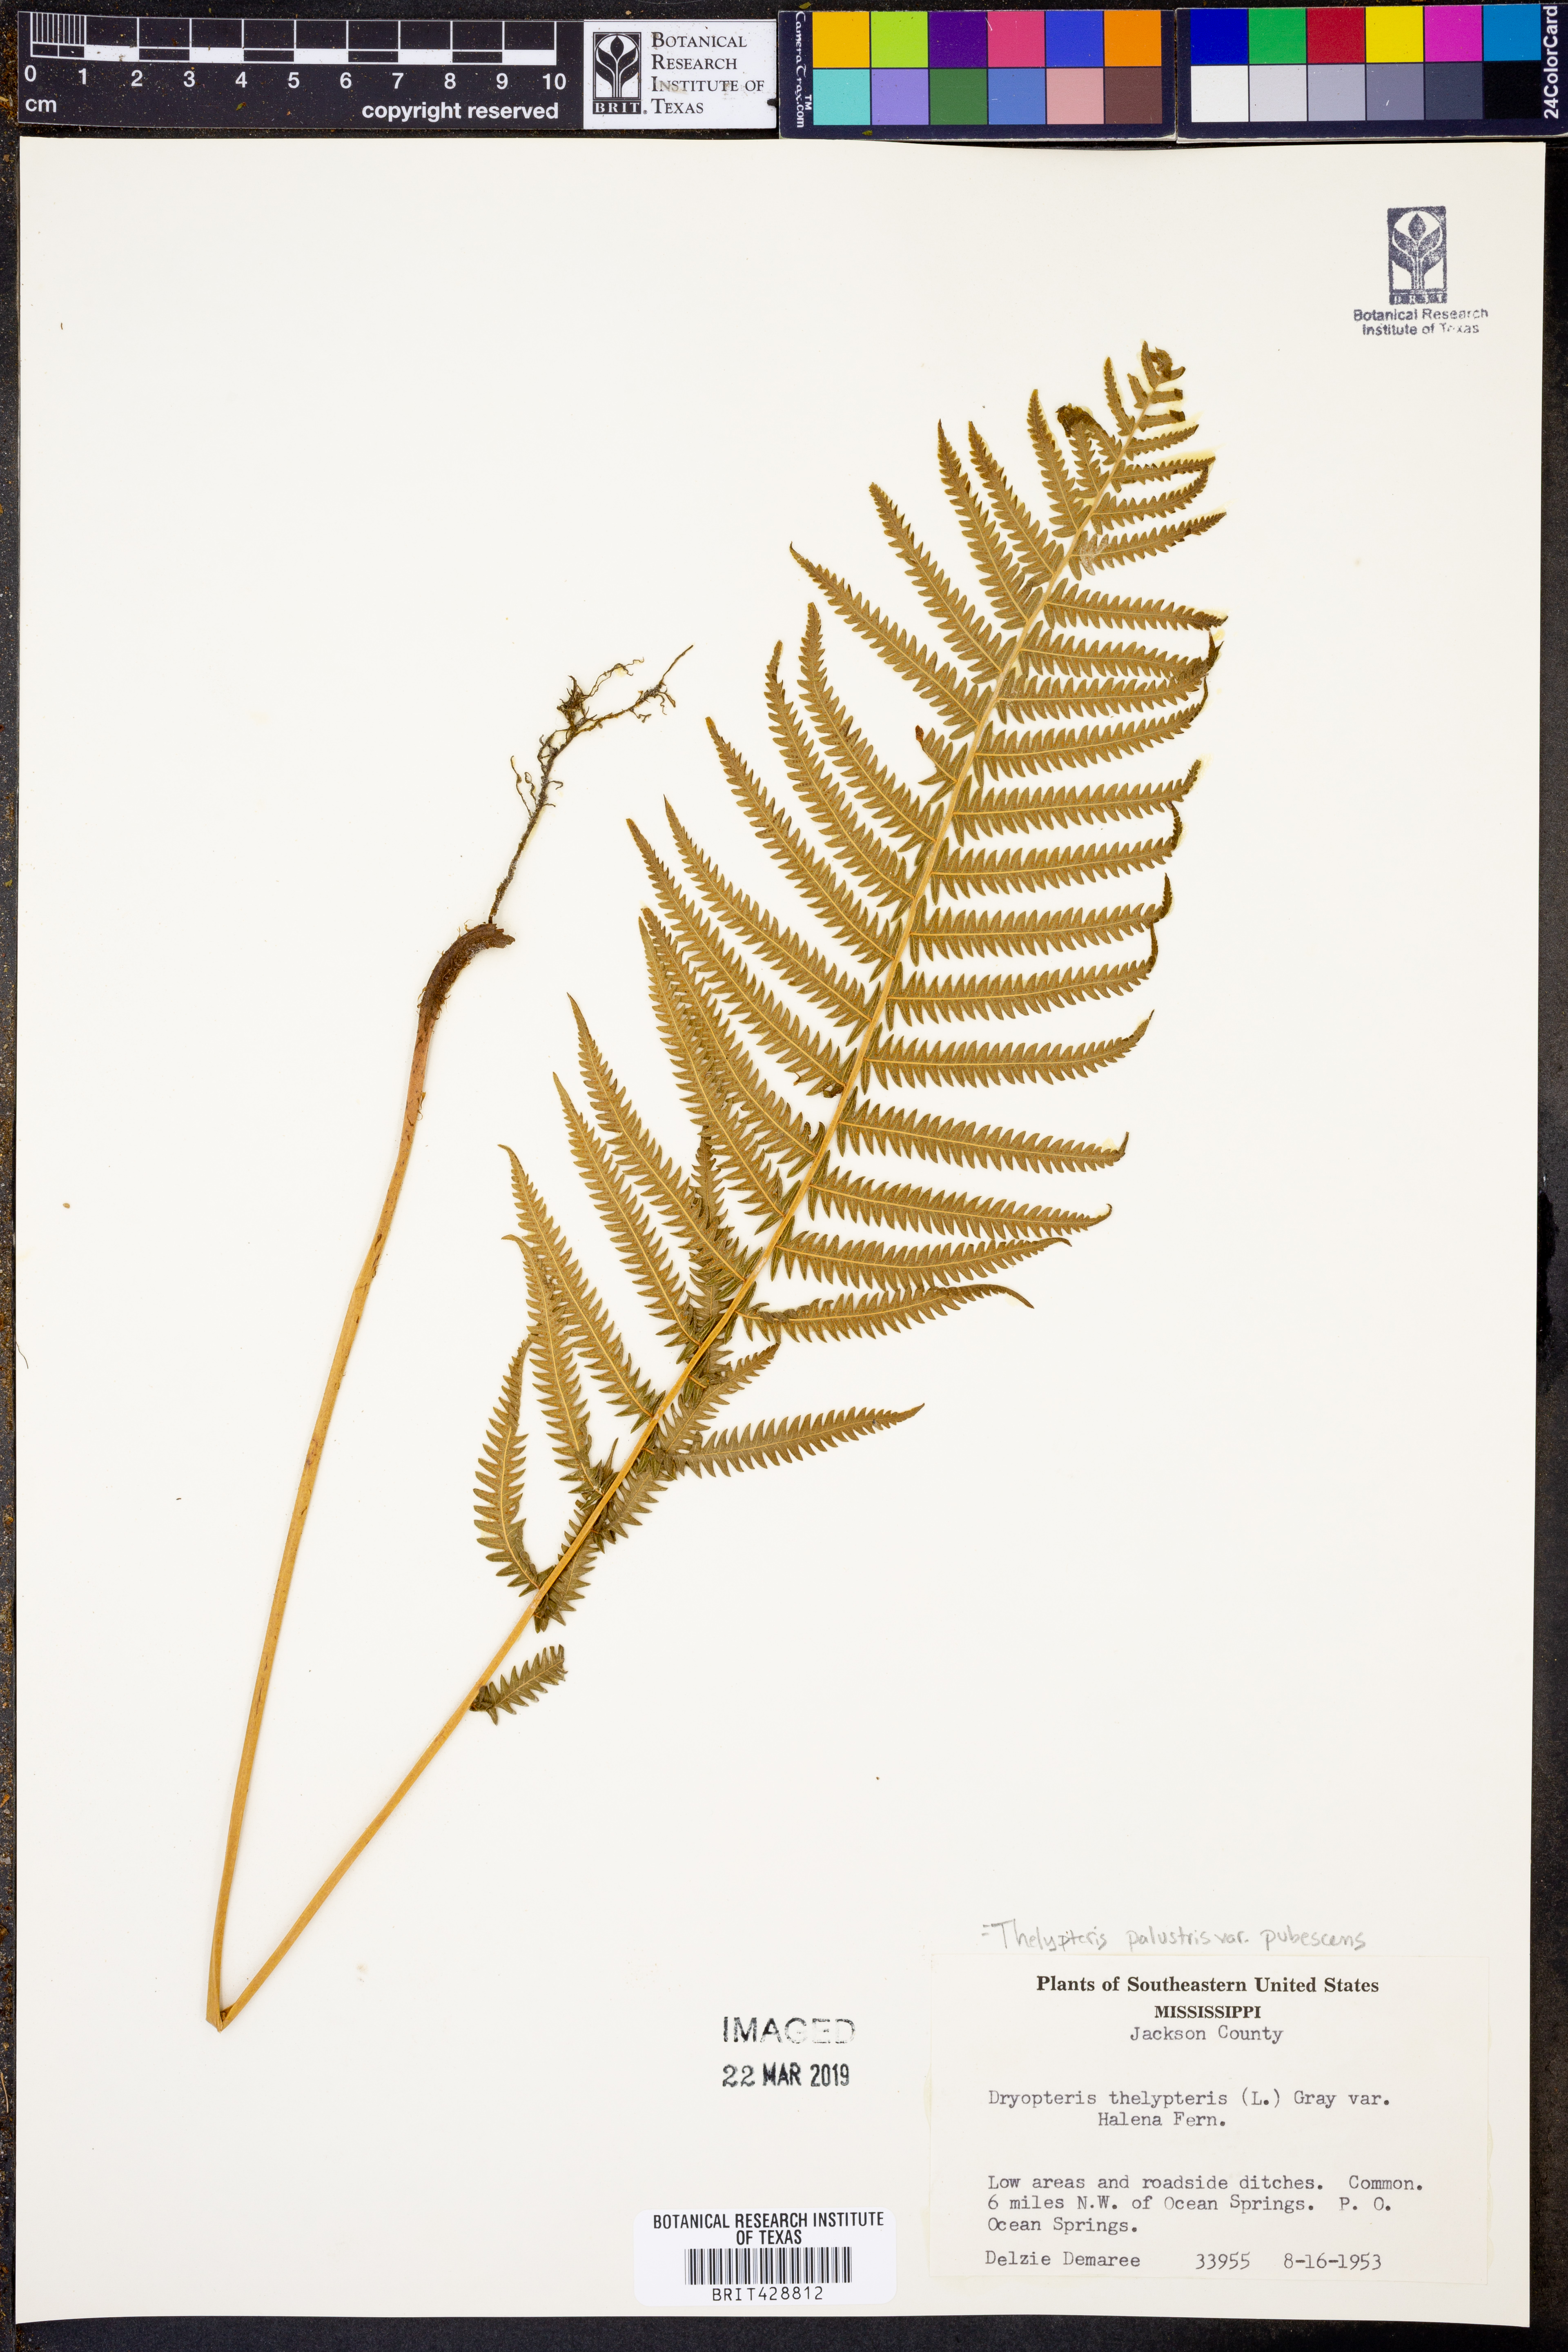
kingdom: Plantae
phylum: Tracheophyta
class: Polypodiopsida
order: Polypodiales
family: Thelypteridaceae
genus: Thelypteris
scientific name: Thelypteris palustris
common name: Marsh fern
